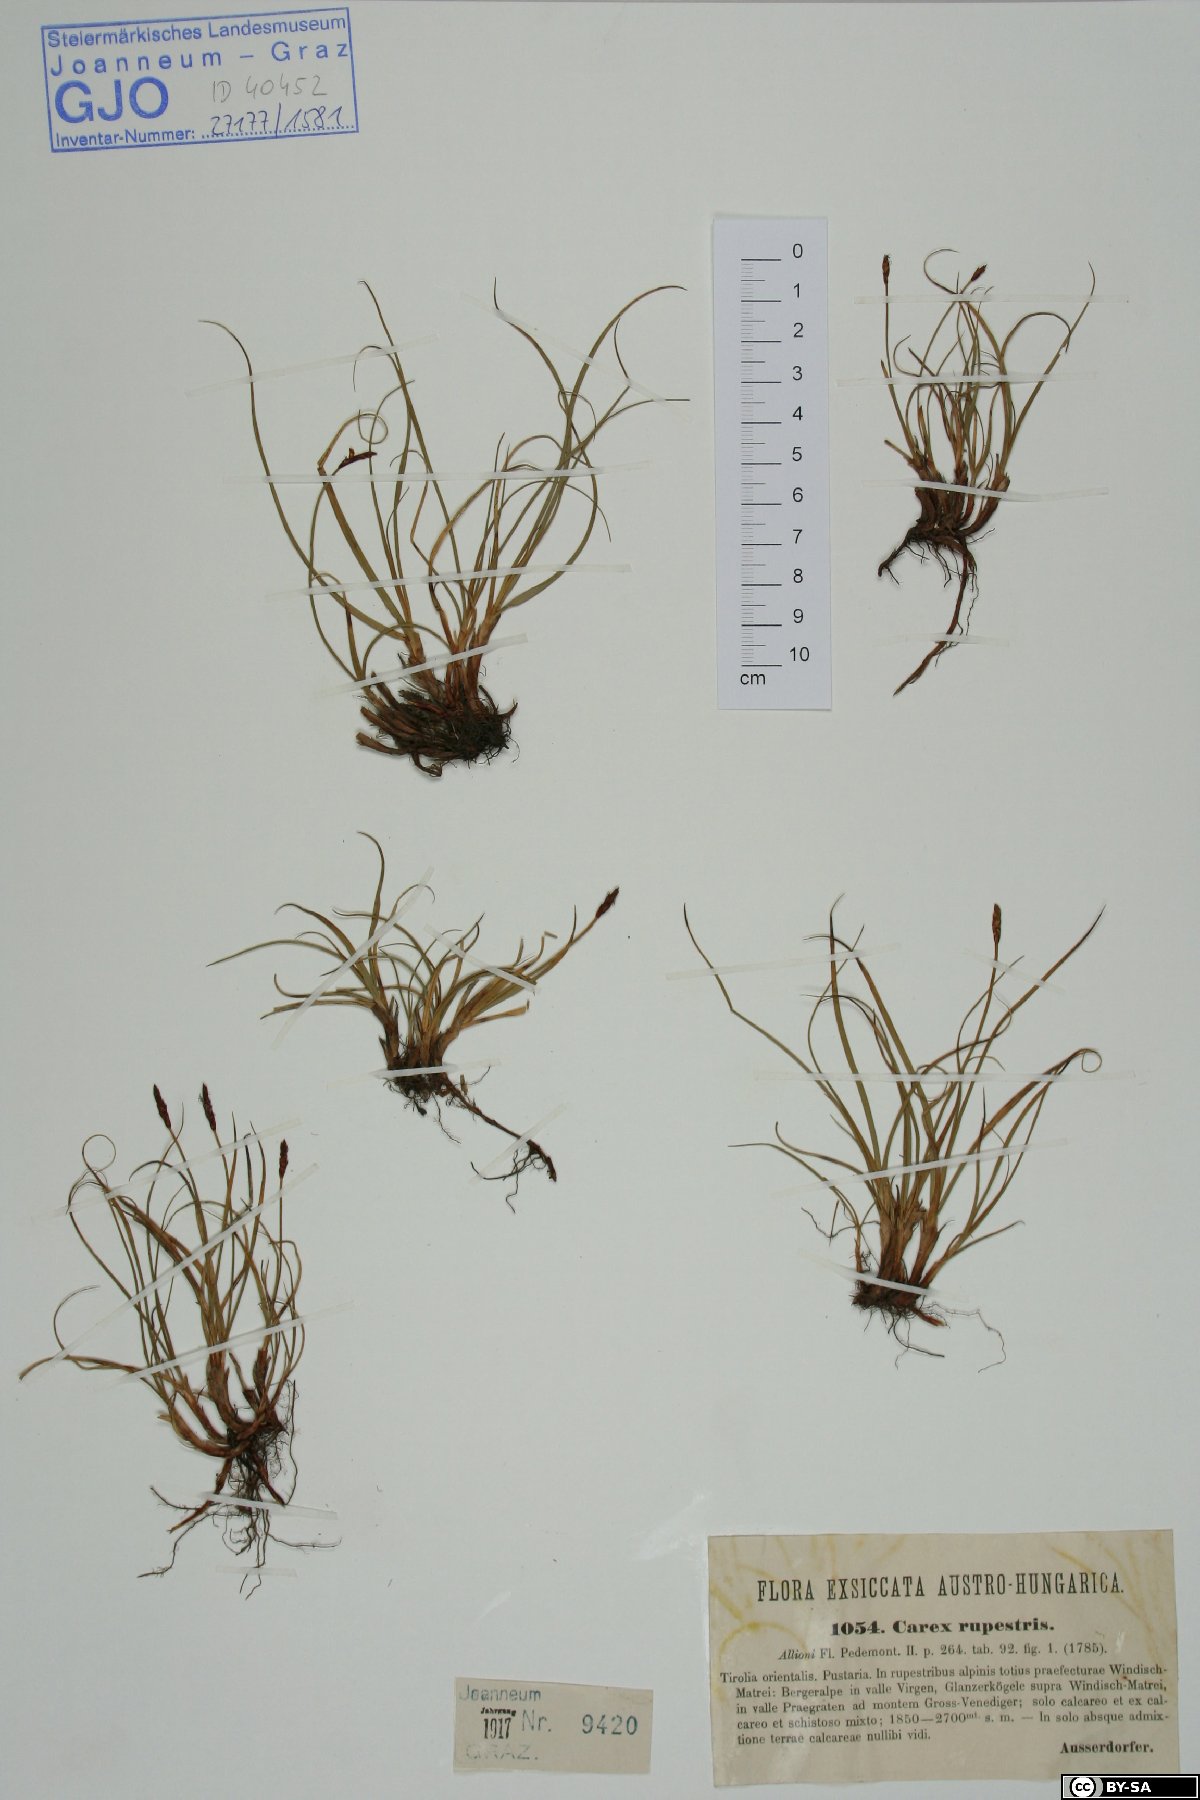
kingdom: Plantae
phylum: Tracheophyta
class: Liliopsida
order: Poales
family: Cyperaceae
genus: Carex
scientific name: Carex rupestris
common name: Rock sedge
